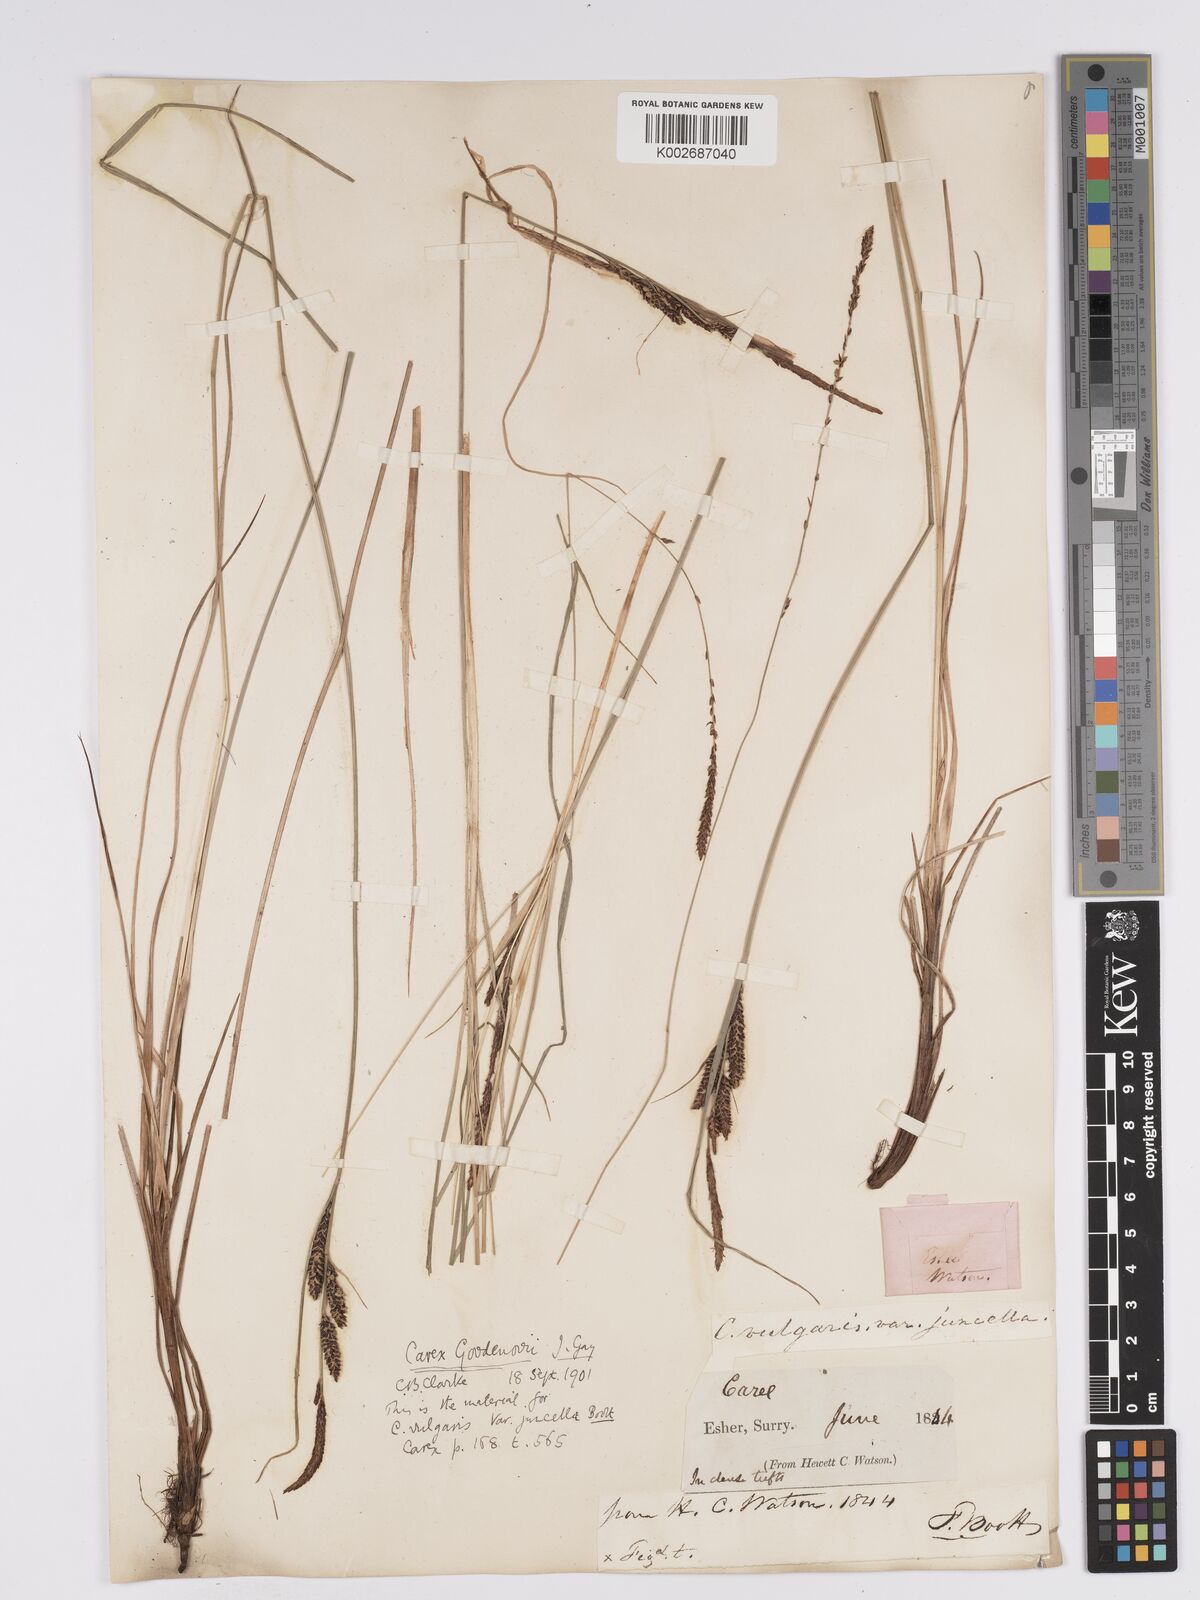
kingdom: Plantae
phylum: Tracheophyta
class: Liliopsida
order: Poales
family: Cyperaceae
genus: Carex
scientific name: Carex nigra
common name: Common sedge
